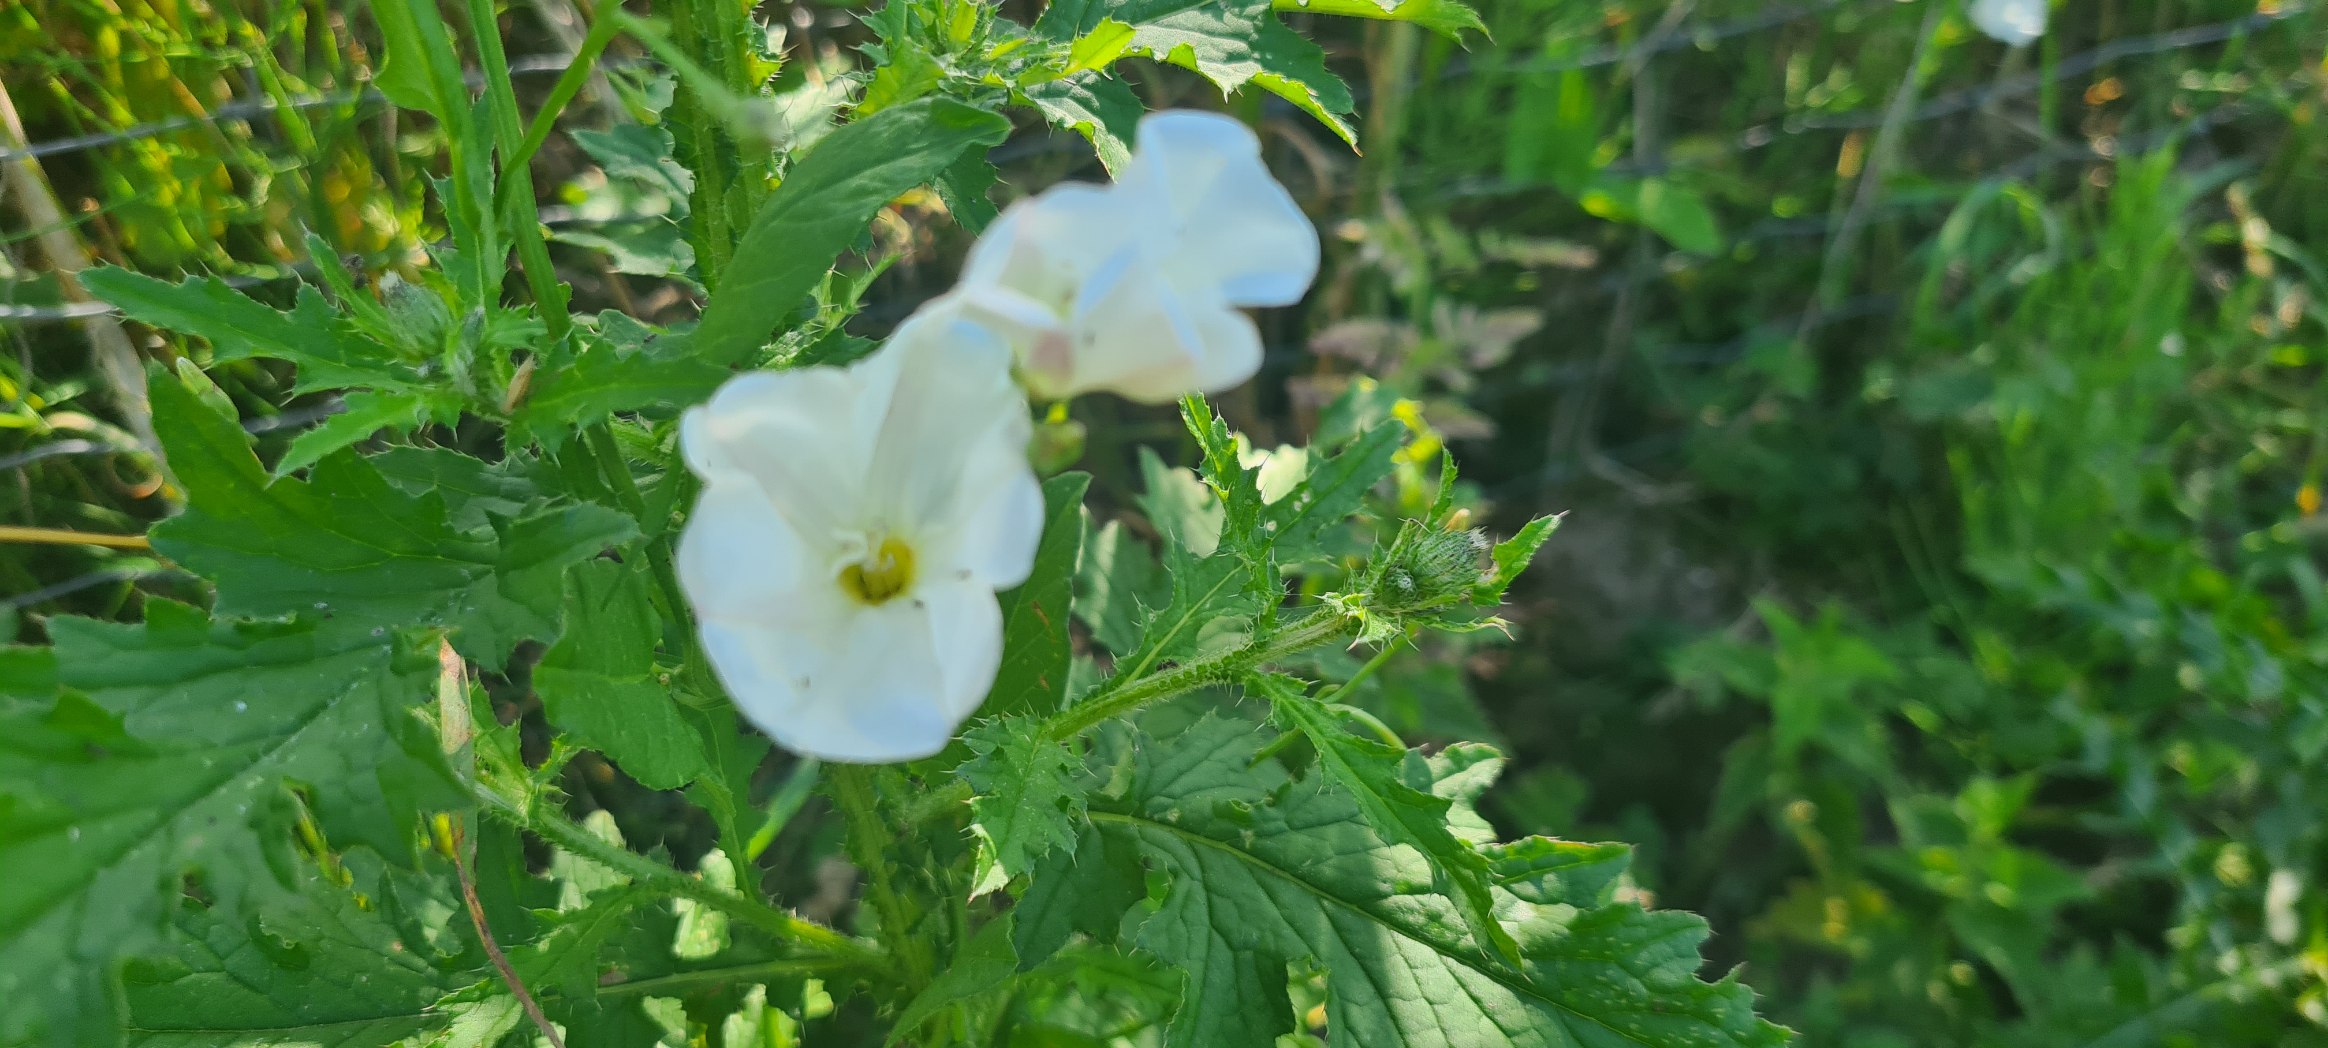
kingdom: Plantae
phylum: Tracheophyta
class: Magnoliopsida
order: Solanales
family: Convolvulaceae
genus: Calystegia
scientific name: Calystegia sepium
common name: Gærde-snerle
